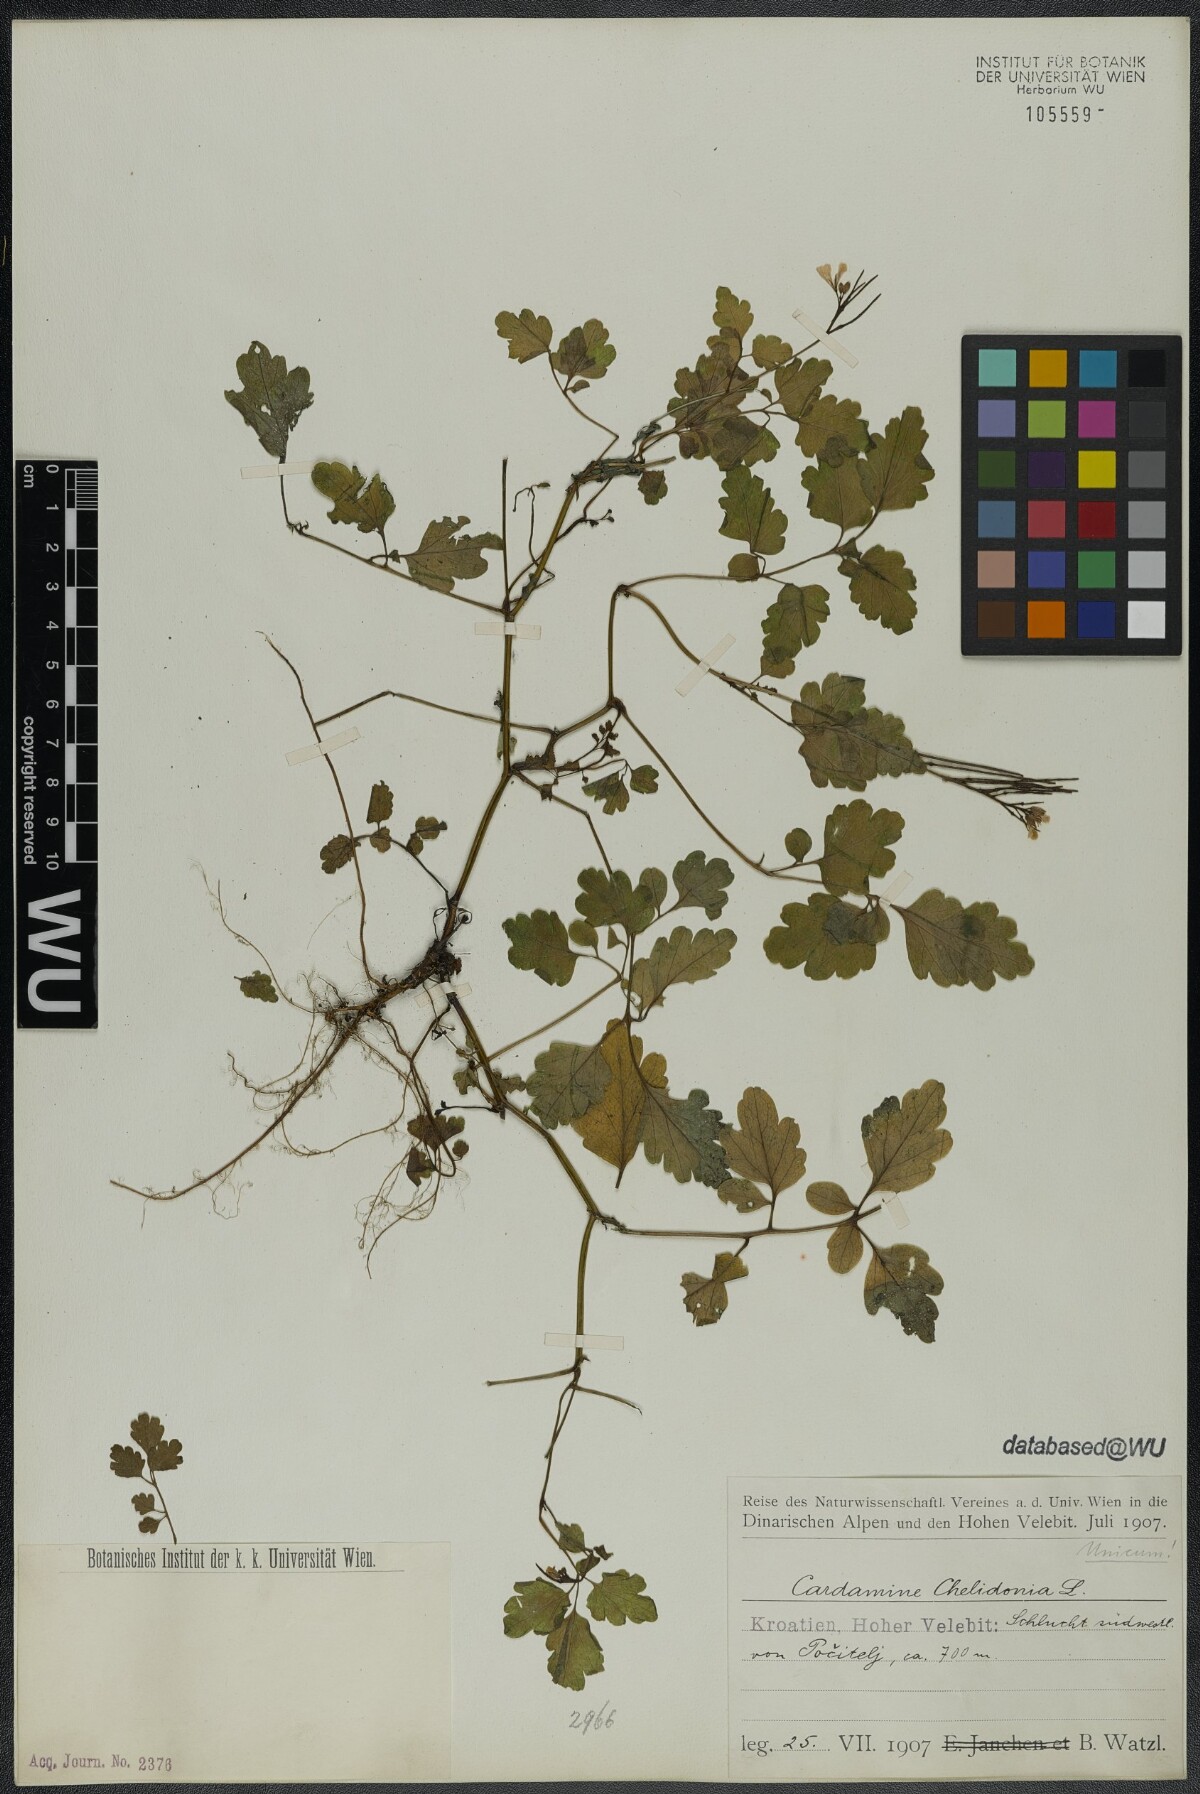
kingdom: Plantae
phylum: Tracheophyta
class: Magnoliopsida
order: Brassicales
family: Brassicaceae
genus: Cardamine
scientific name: Cardamine chelidonia
